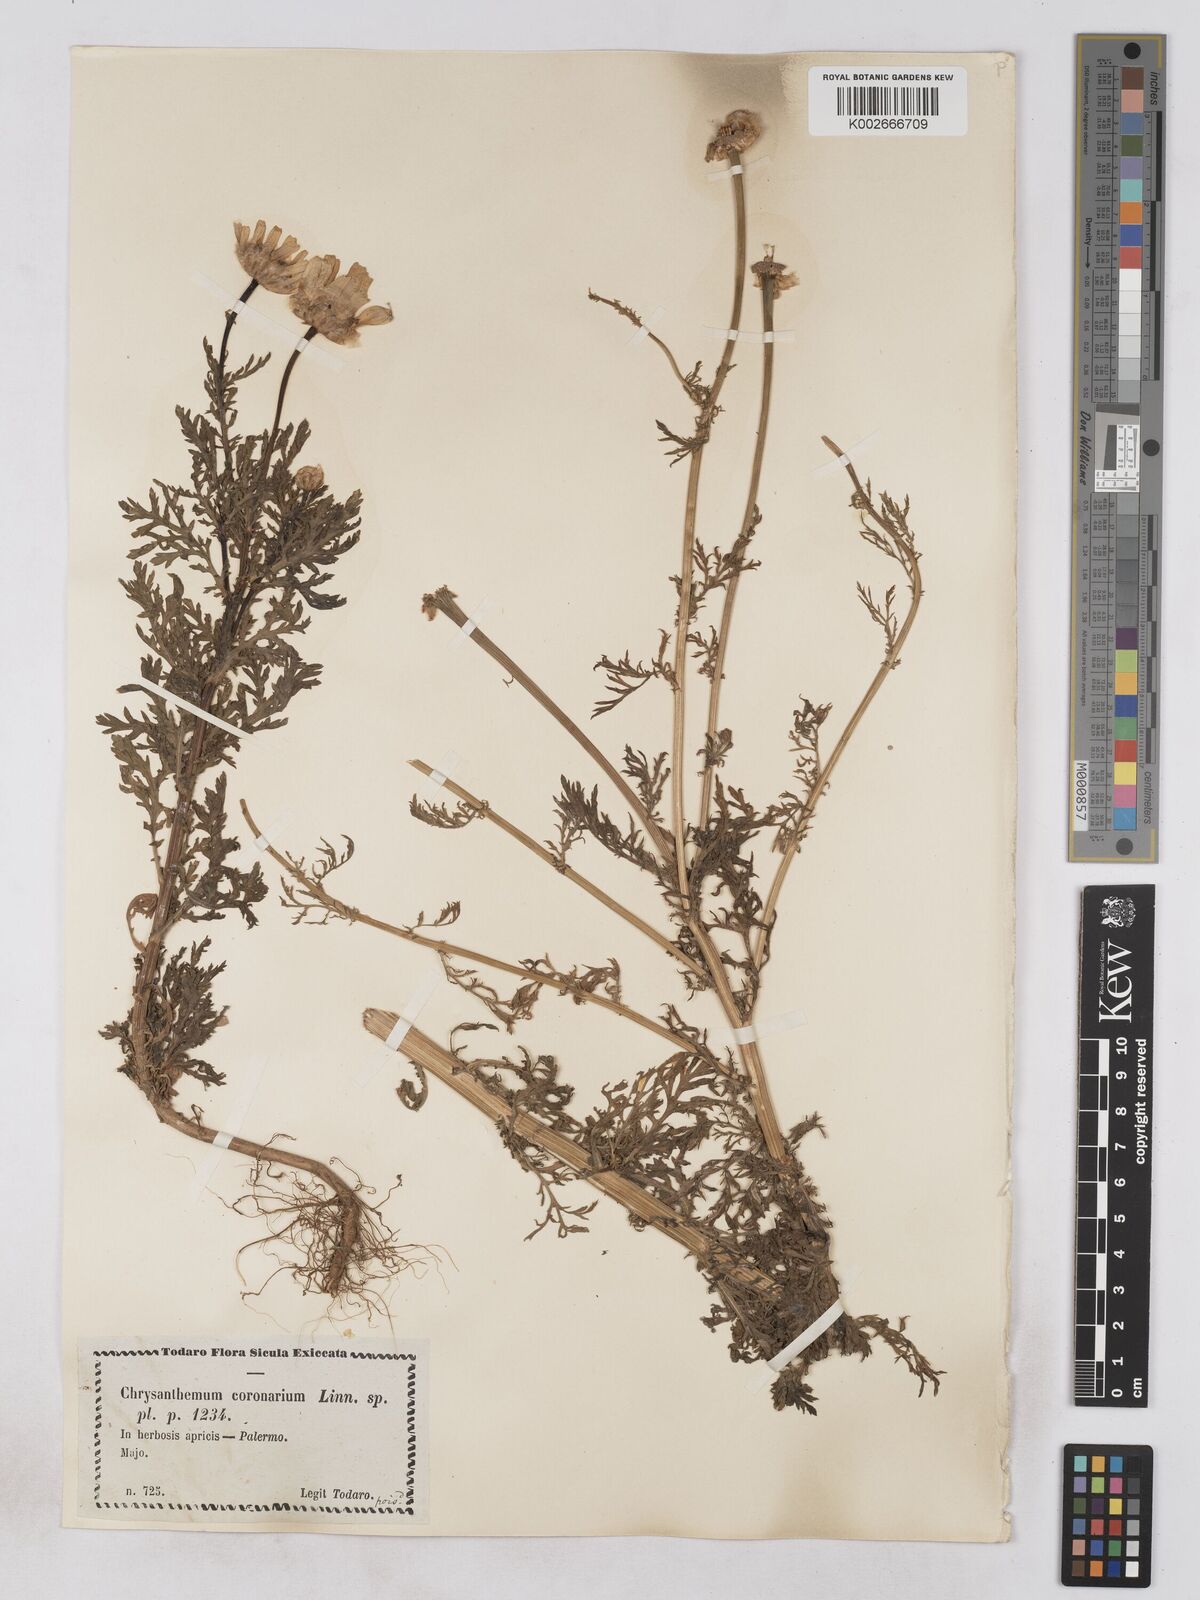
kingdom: Plantae
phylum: Tracheophyta
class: Magnoliopsida
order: Asterales
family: Asteraceae
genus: Glebionis
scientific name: Glebionis coronaria
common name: Crowndaisy
